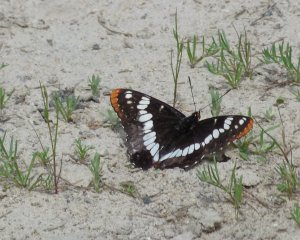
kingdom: Animalia
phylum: Arthropoda
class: Insecta
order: Lepidoptera
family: Nymphalidae
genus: Limenitis
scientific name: Limenitis lorquini
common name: Lorquin's Admiral
